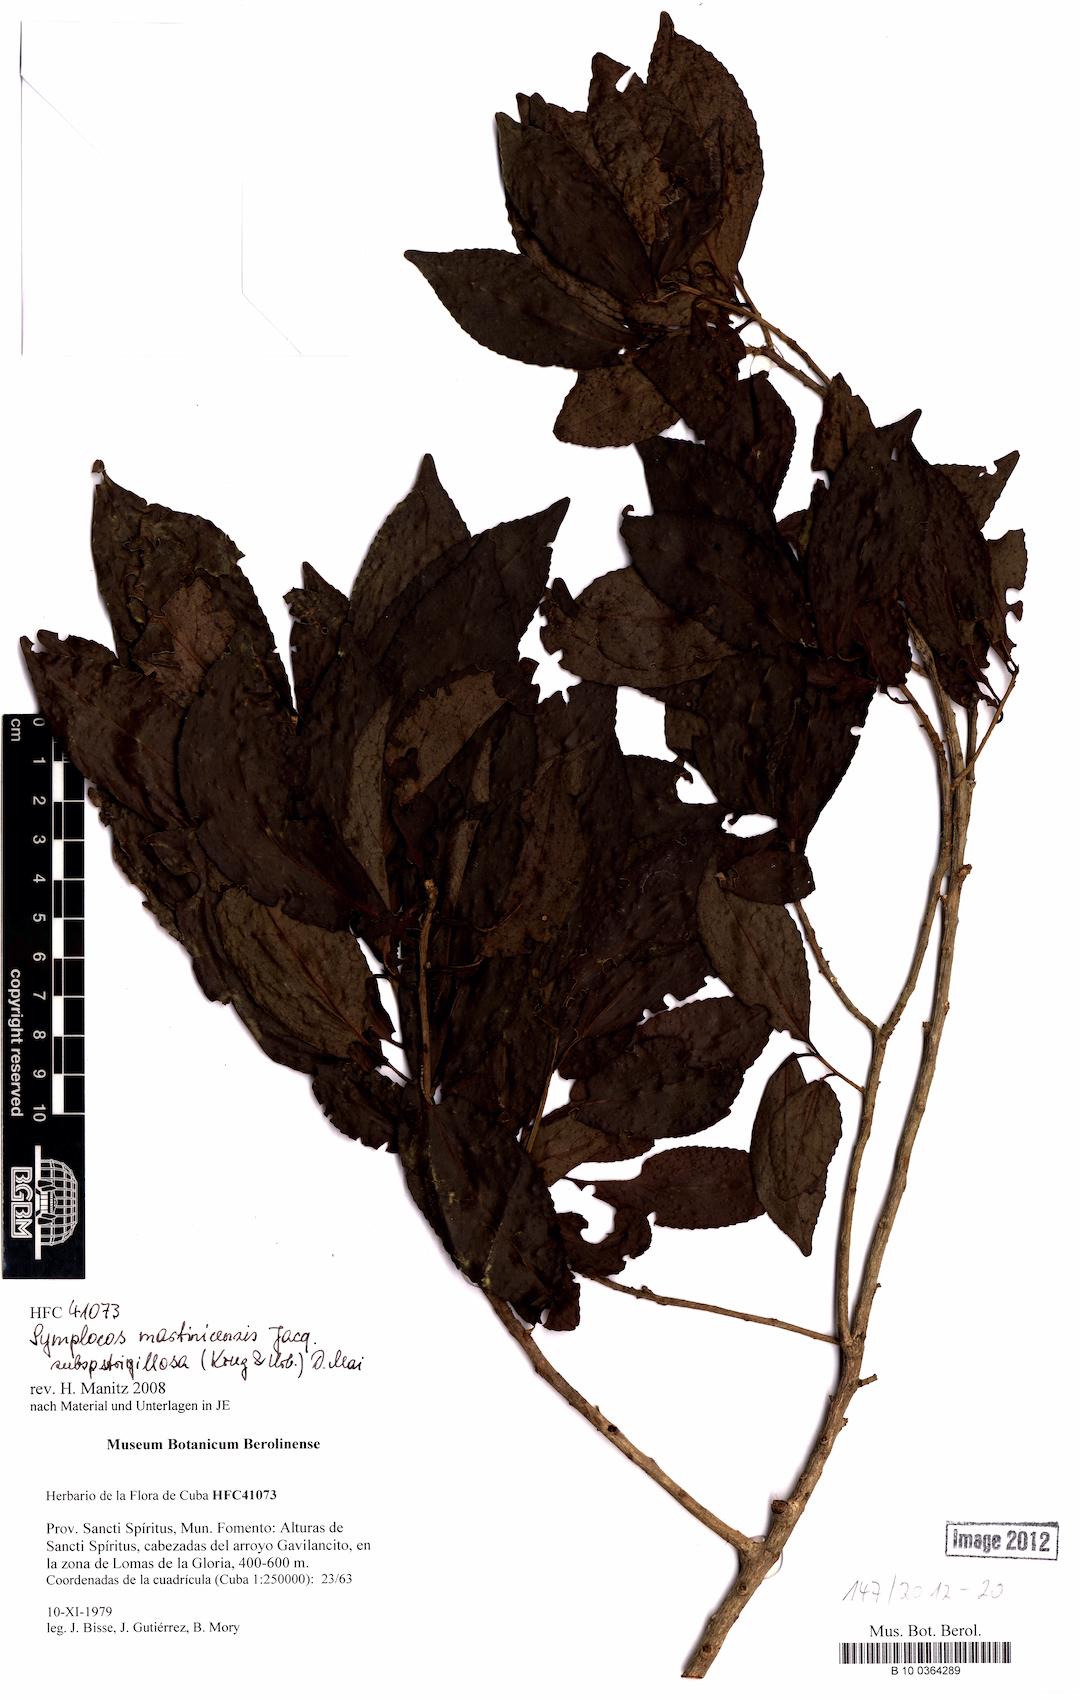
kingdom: Plantae
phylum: Tracheophyta
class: Magnoliopsida
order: Ericales
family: Symplocaceae
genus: Symplocos
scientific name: Symplocos jurgensenii
